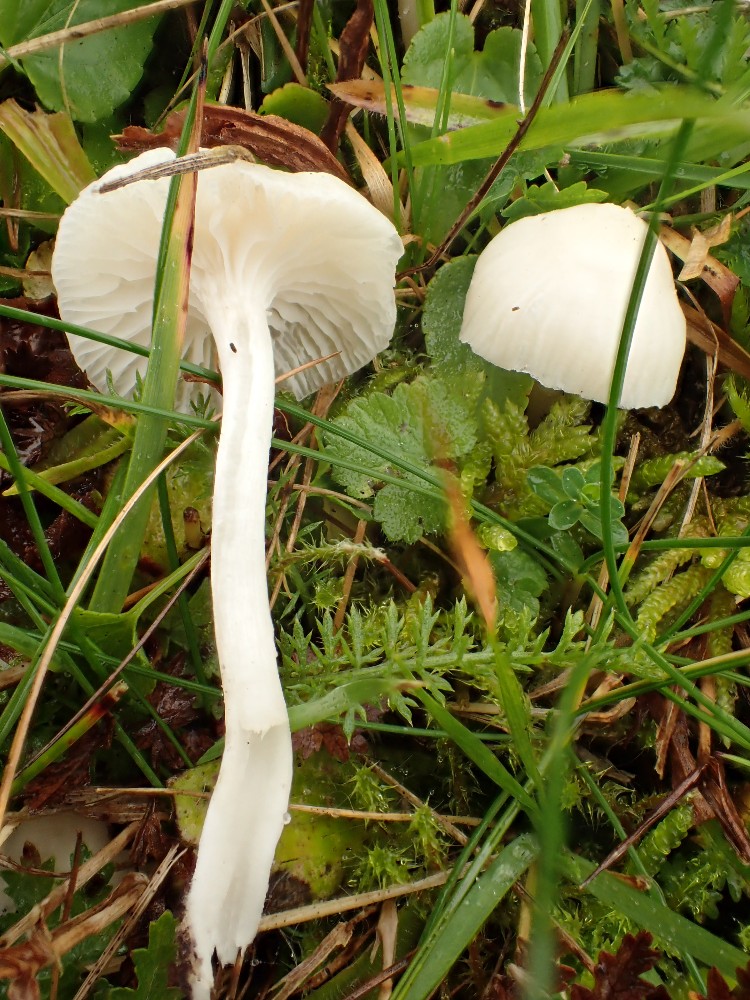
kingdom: Fungi
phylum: Basidiomycota
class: Agaricomycetes
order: Agaricales
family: Hygrophoraceae
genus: Cuphophyllus
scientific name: Cuphophyllus virgineus
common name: snehvid vokshat
